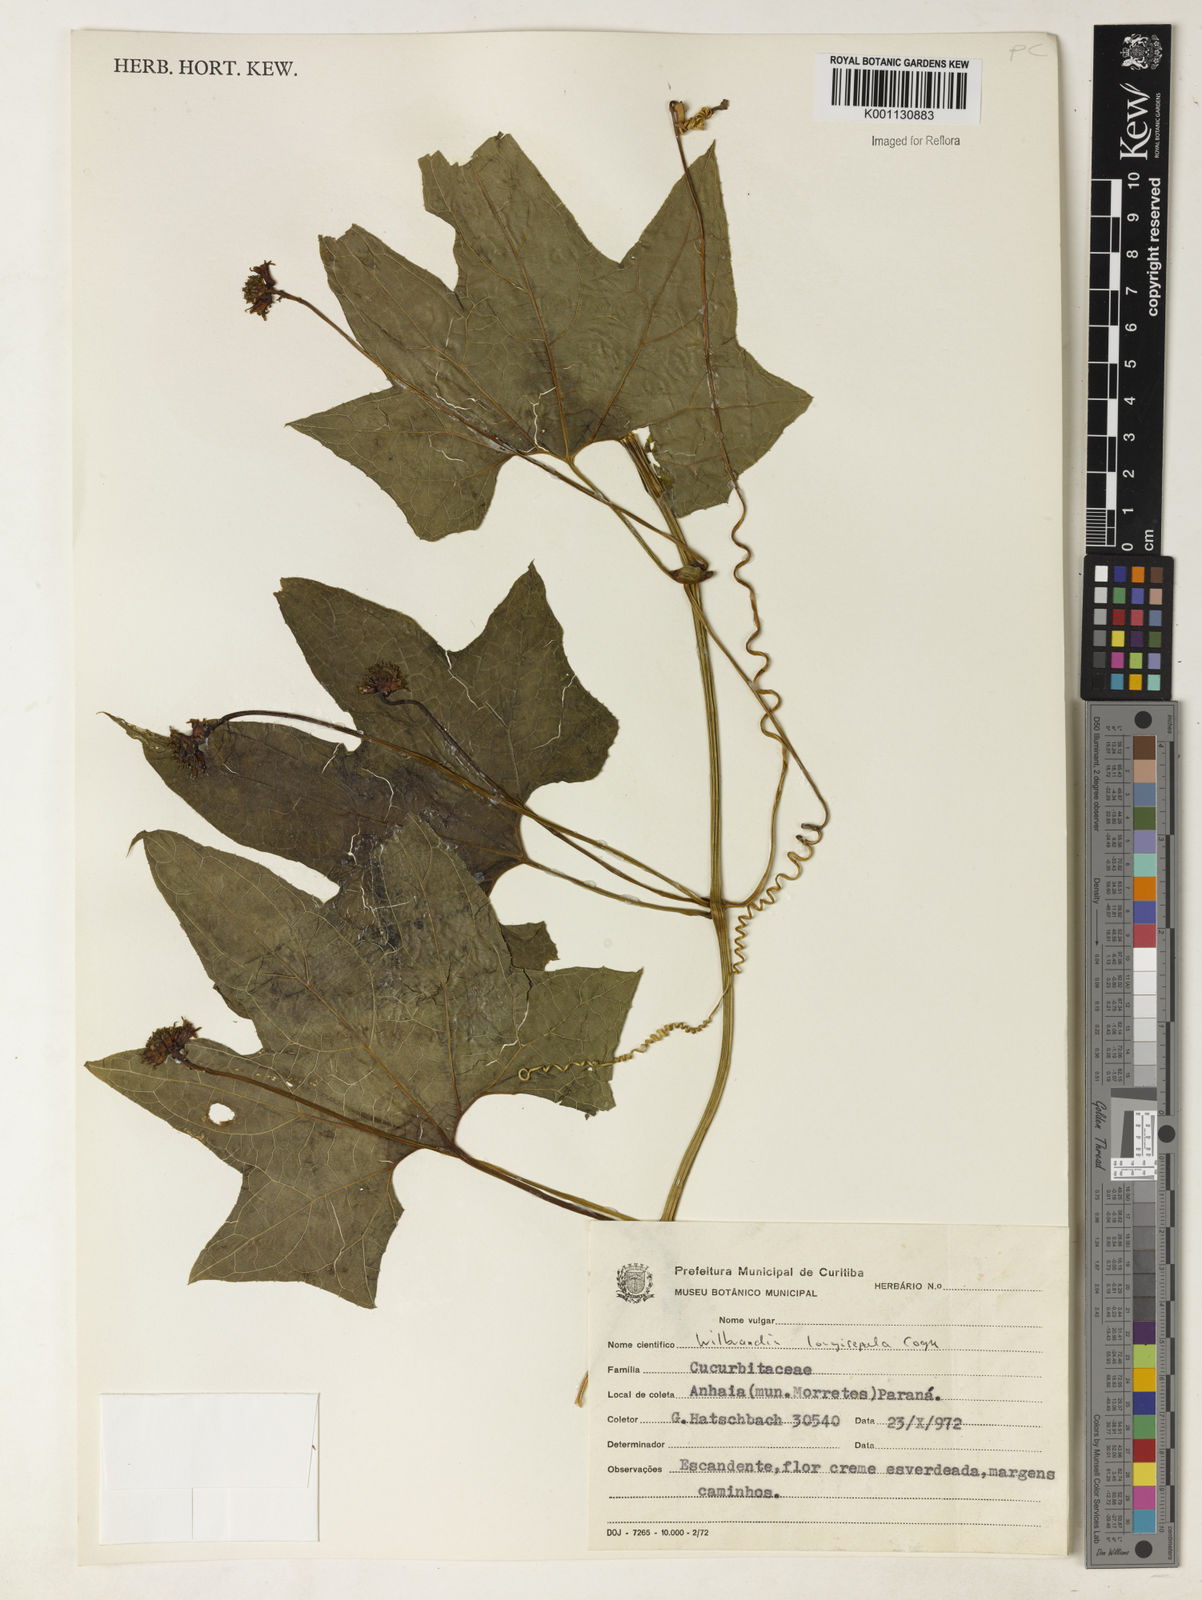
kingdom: Plantae
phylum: Tracheophyta
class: Magnoliopsida
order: Cucurbitales
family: Cucurbitaceae
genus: Wilbrandia
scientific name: Wilbrandia longisepala
